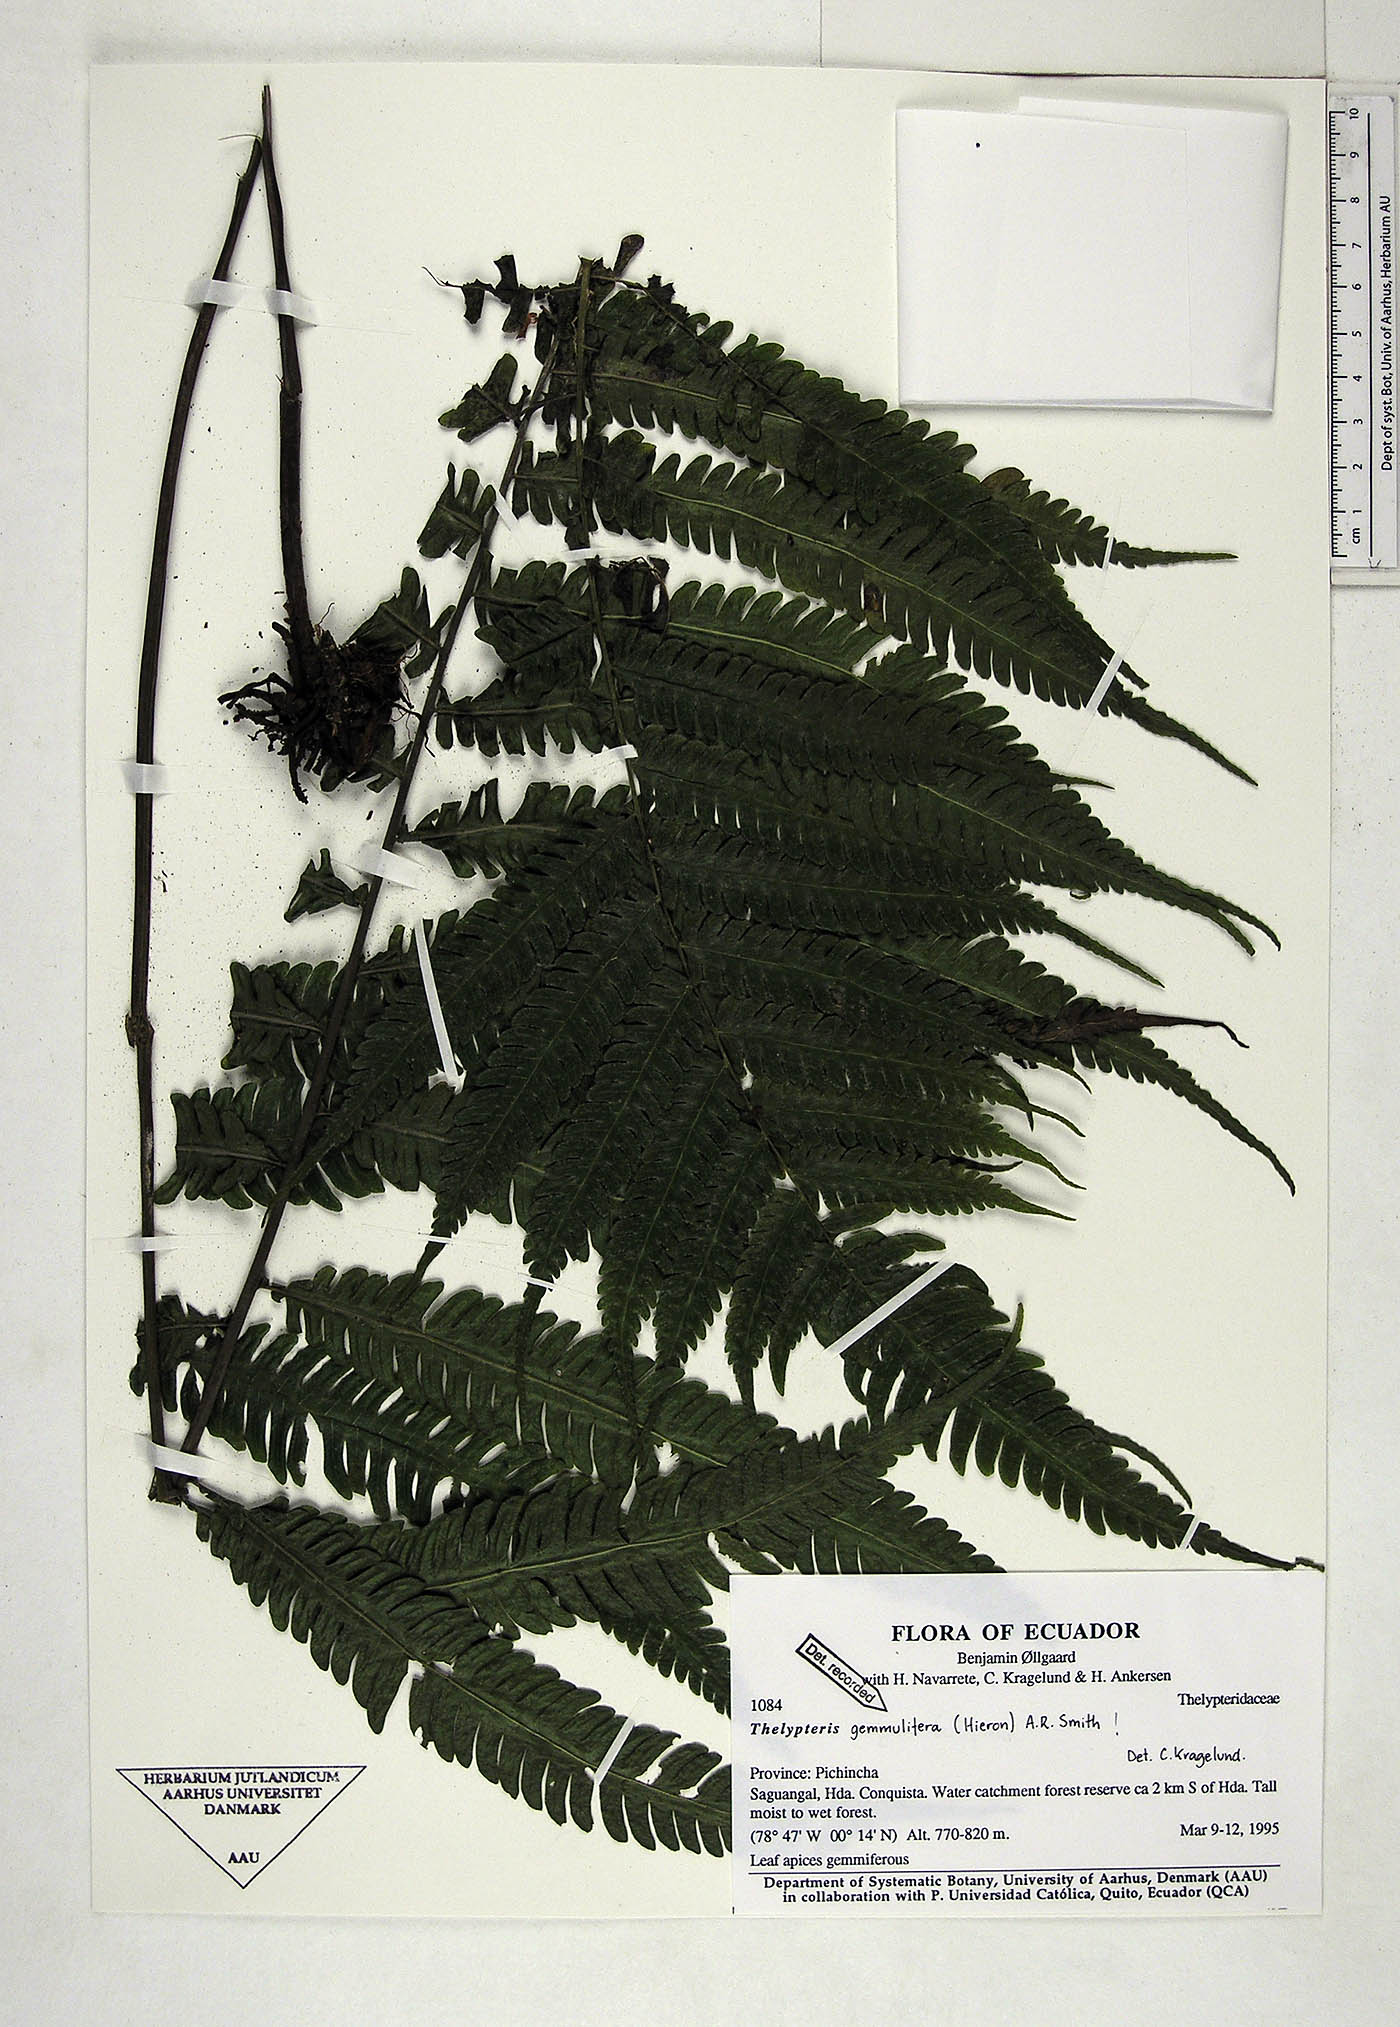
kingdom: Plantae
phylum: Tracheophyta
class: Polypodiopsida
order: Polypodiales
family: Thelypteridaceae
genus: Goniopteris
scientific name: Goniopteris gemmulifera
